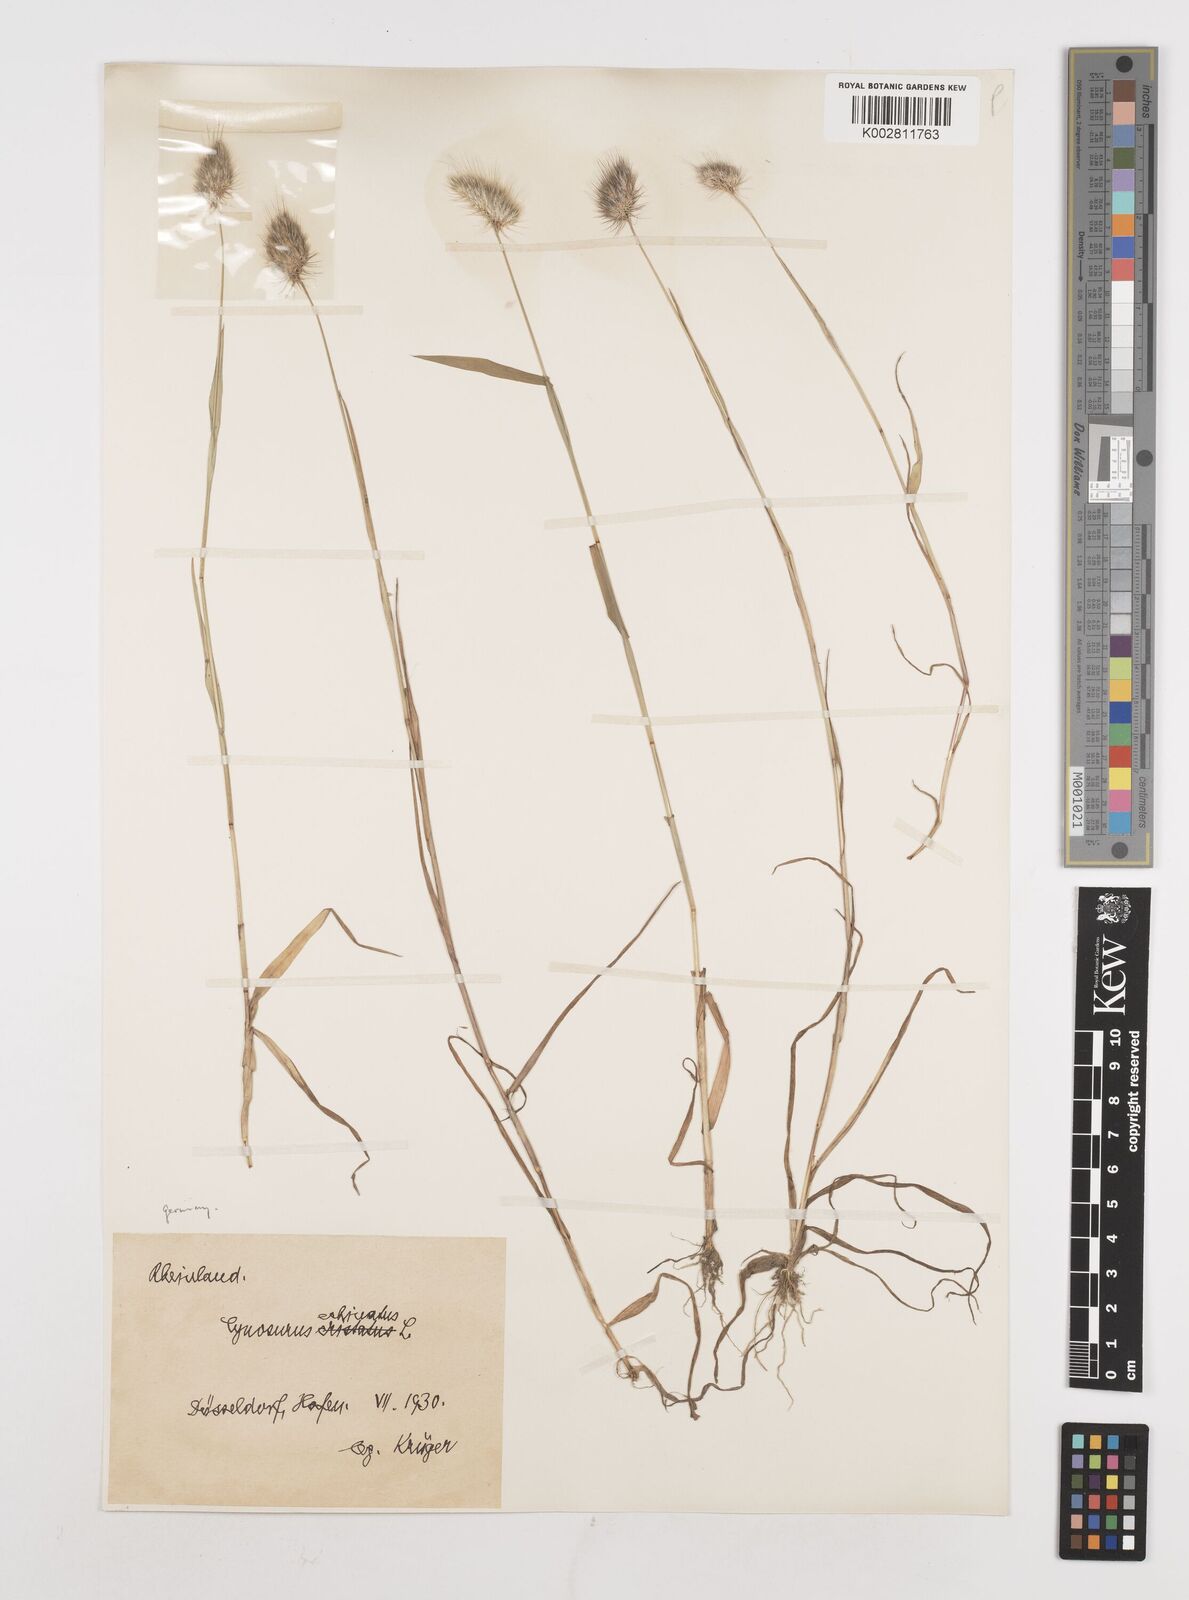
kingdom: Plantae
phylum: Tracheophyta
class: Liliopsida
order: Poales
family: Poaceae
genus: Cynosurus
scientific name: Cynosurus echinatus
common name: Rough dog's-tail
